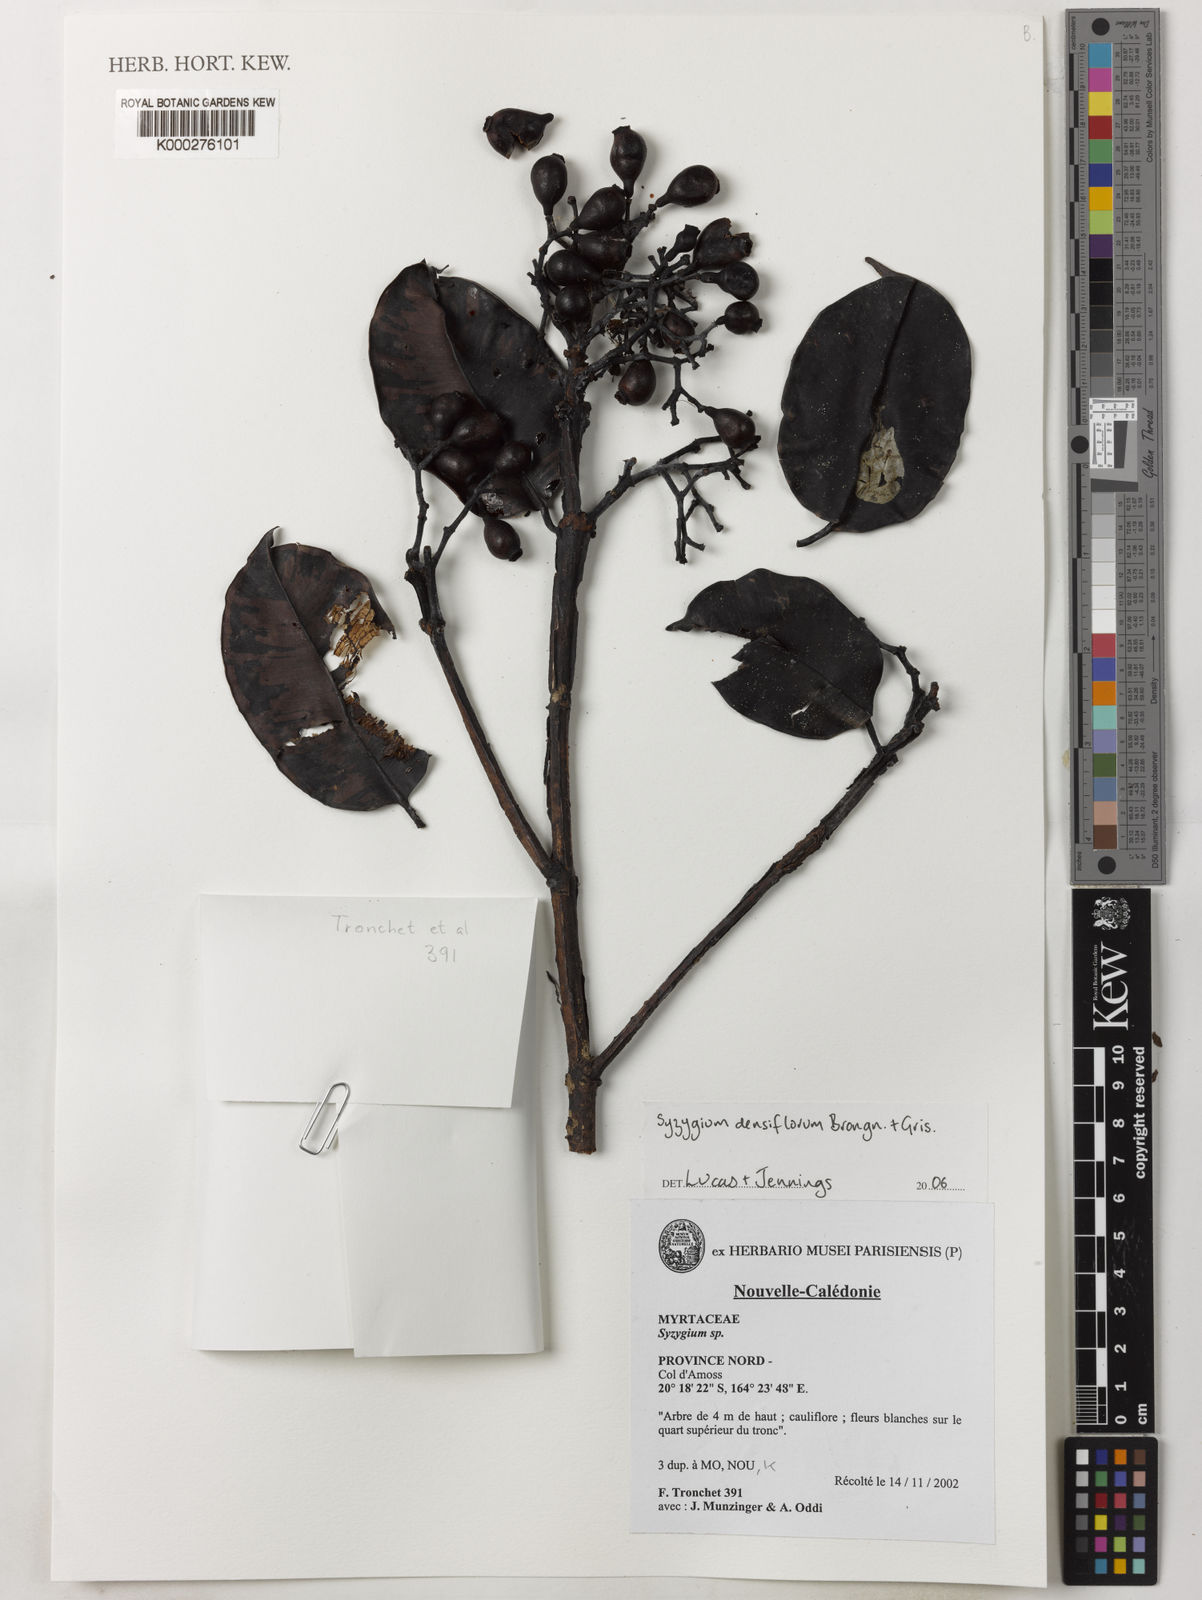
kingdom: Plantae
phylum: Tracheophyta
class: Magnoliopsida
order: Myrtales
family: Myrtaceae
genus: Syzygium
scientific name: Syzygium koghianum
